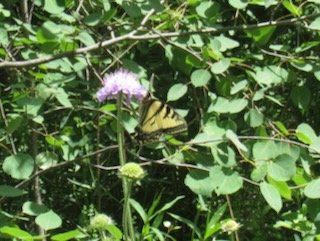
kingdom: Animalia
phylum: Arthropoda
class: Insecta
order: Lepidoptera
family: Papilionidae
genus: Pterourus
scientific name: Pterourus canadensis
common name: Canadian Tiger Swallowtail
